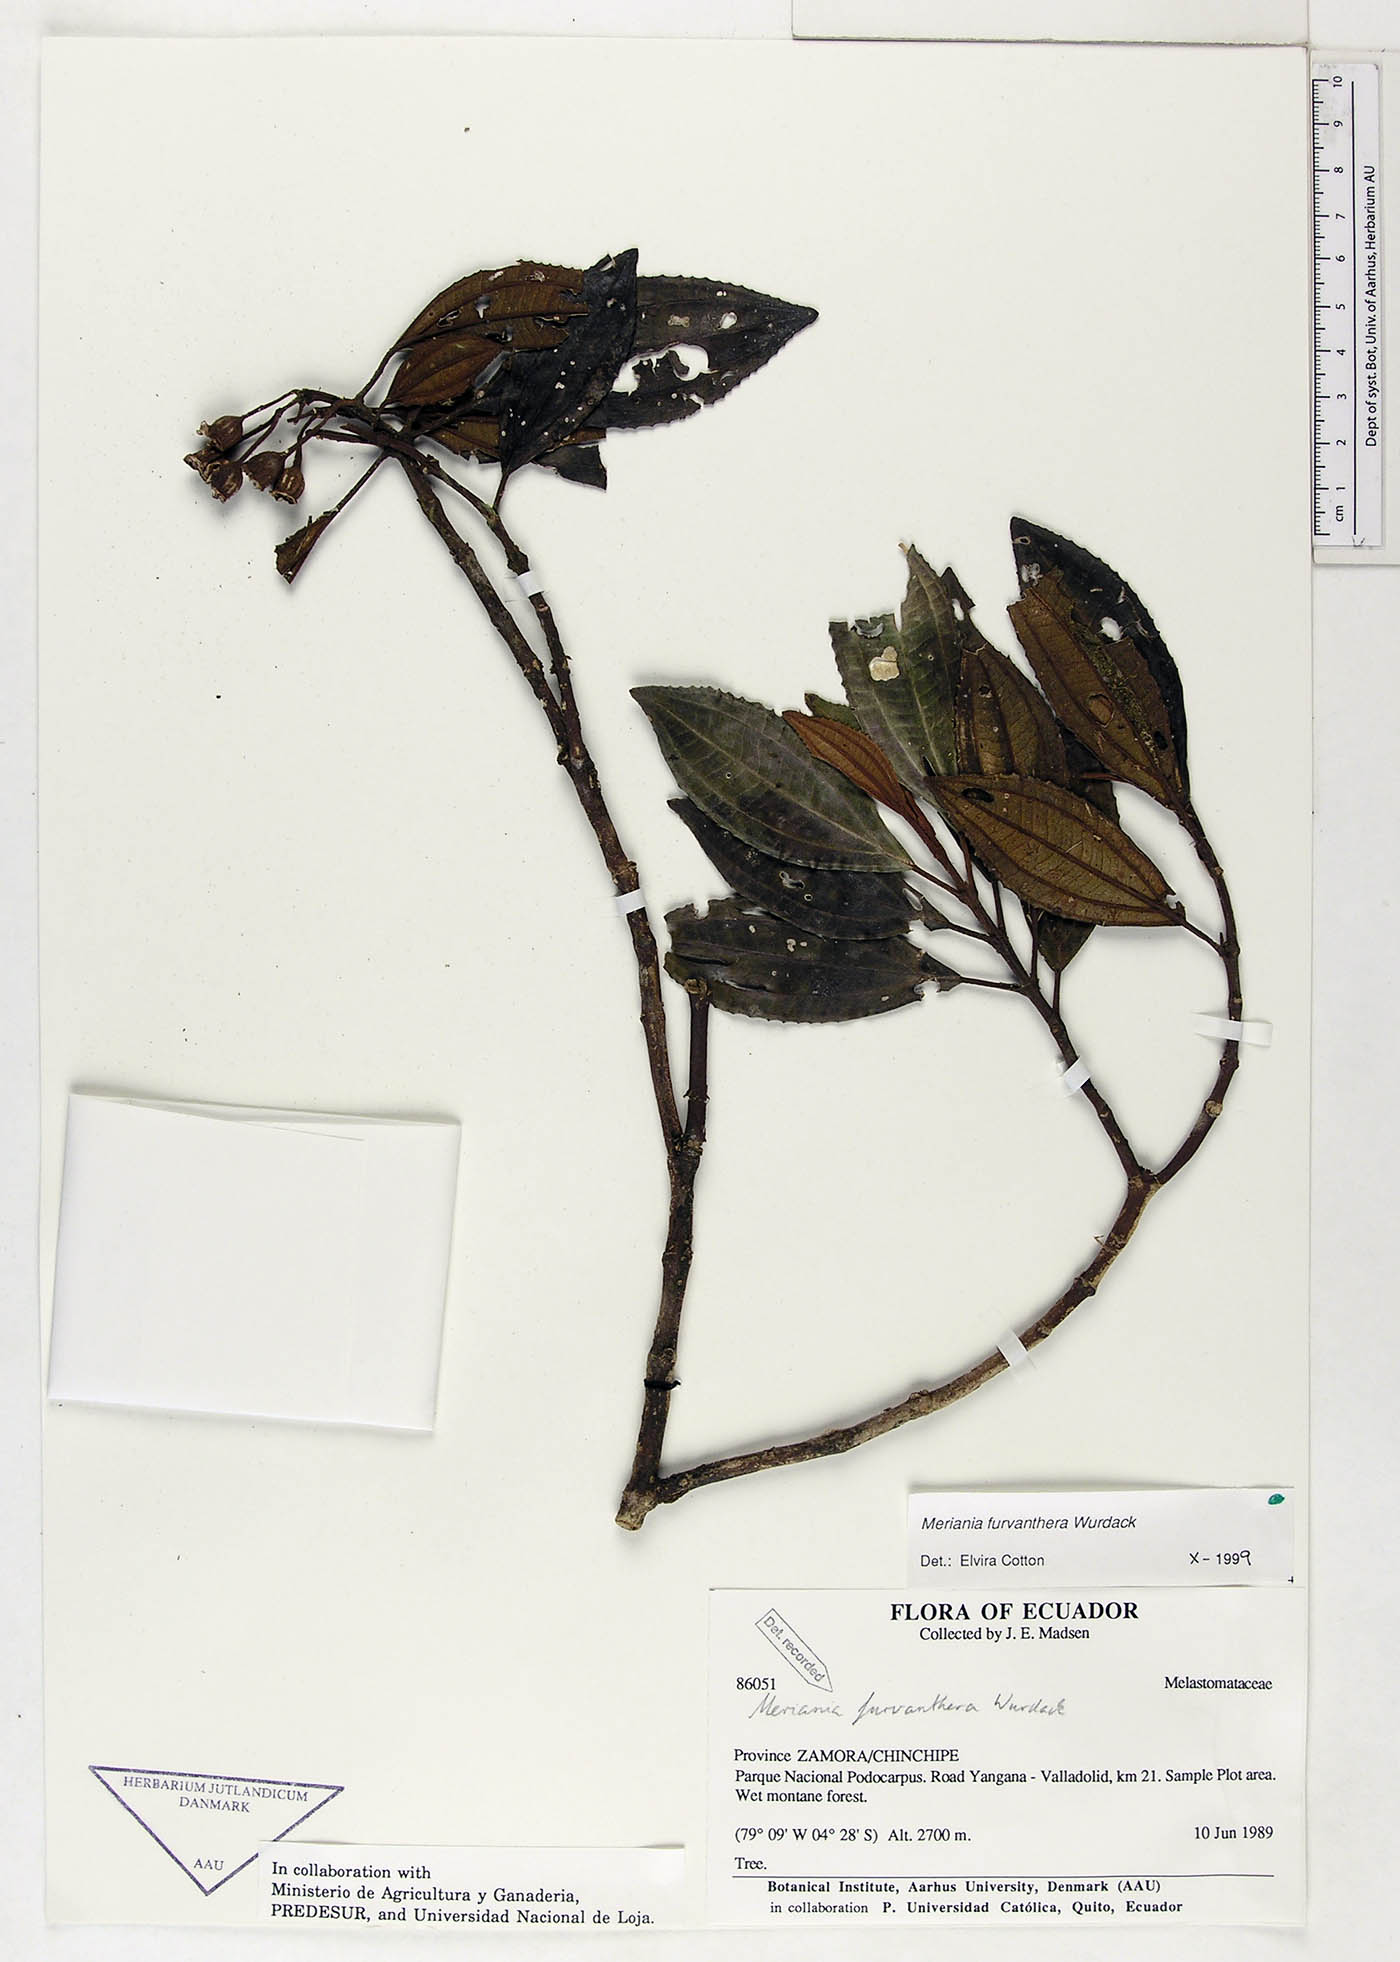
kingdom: Plantae
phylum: Tracheophyta
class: Magnoliopsida
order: Myrtales
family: Melastomataceae
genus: Meriania
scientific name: Meriania furvanthera
